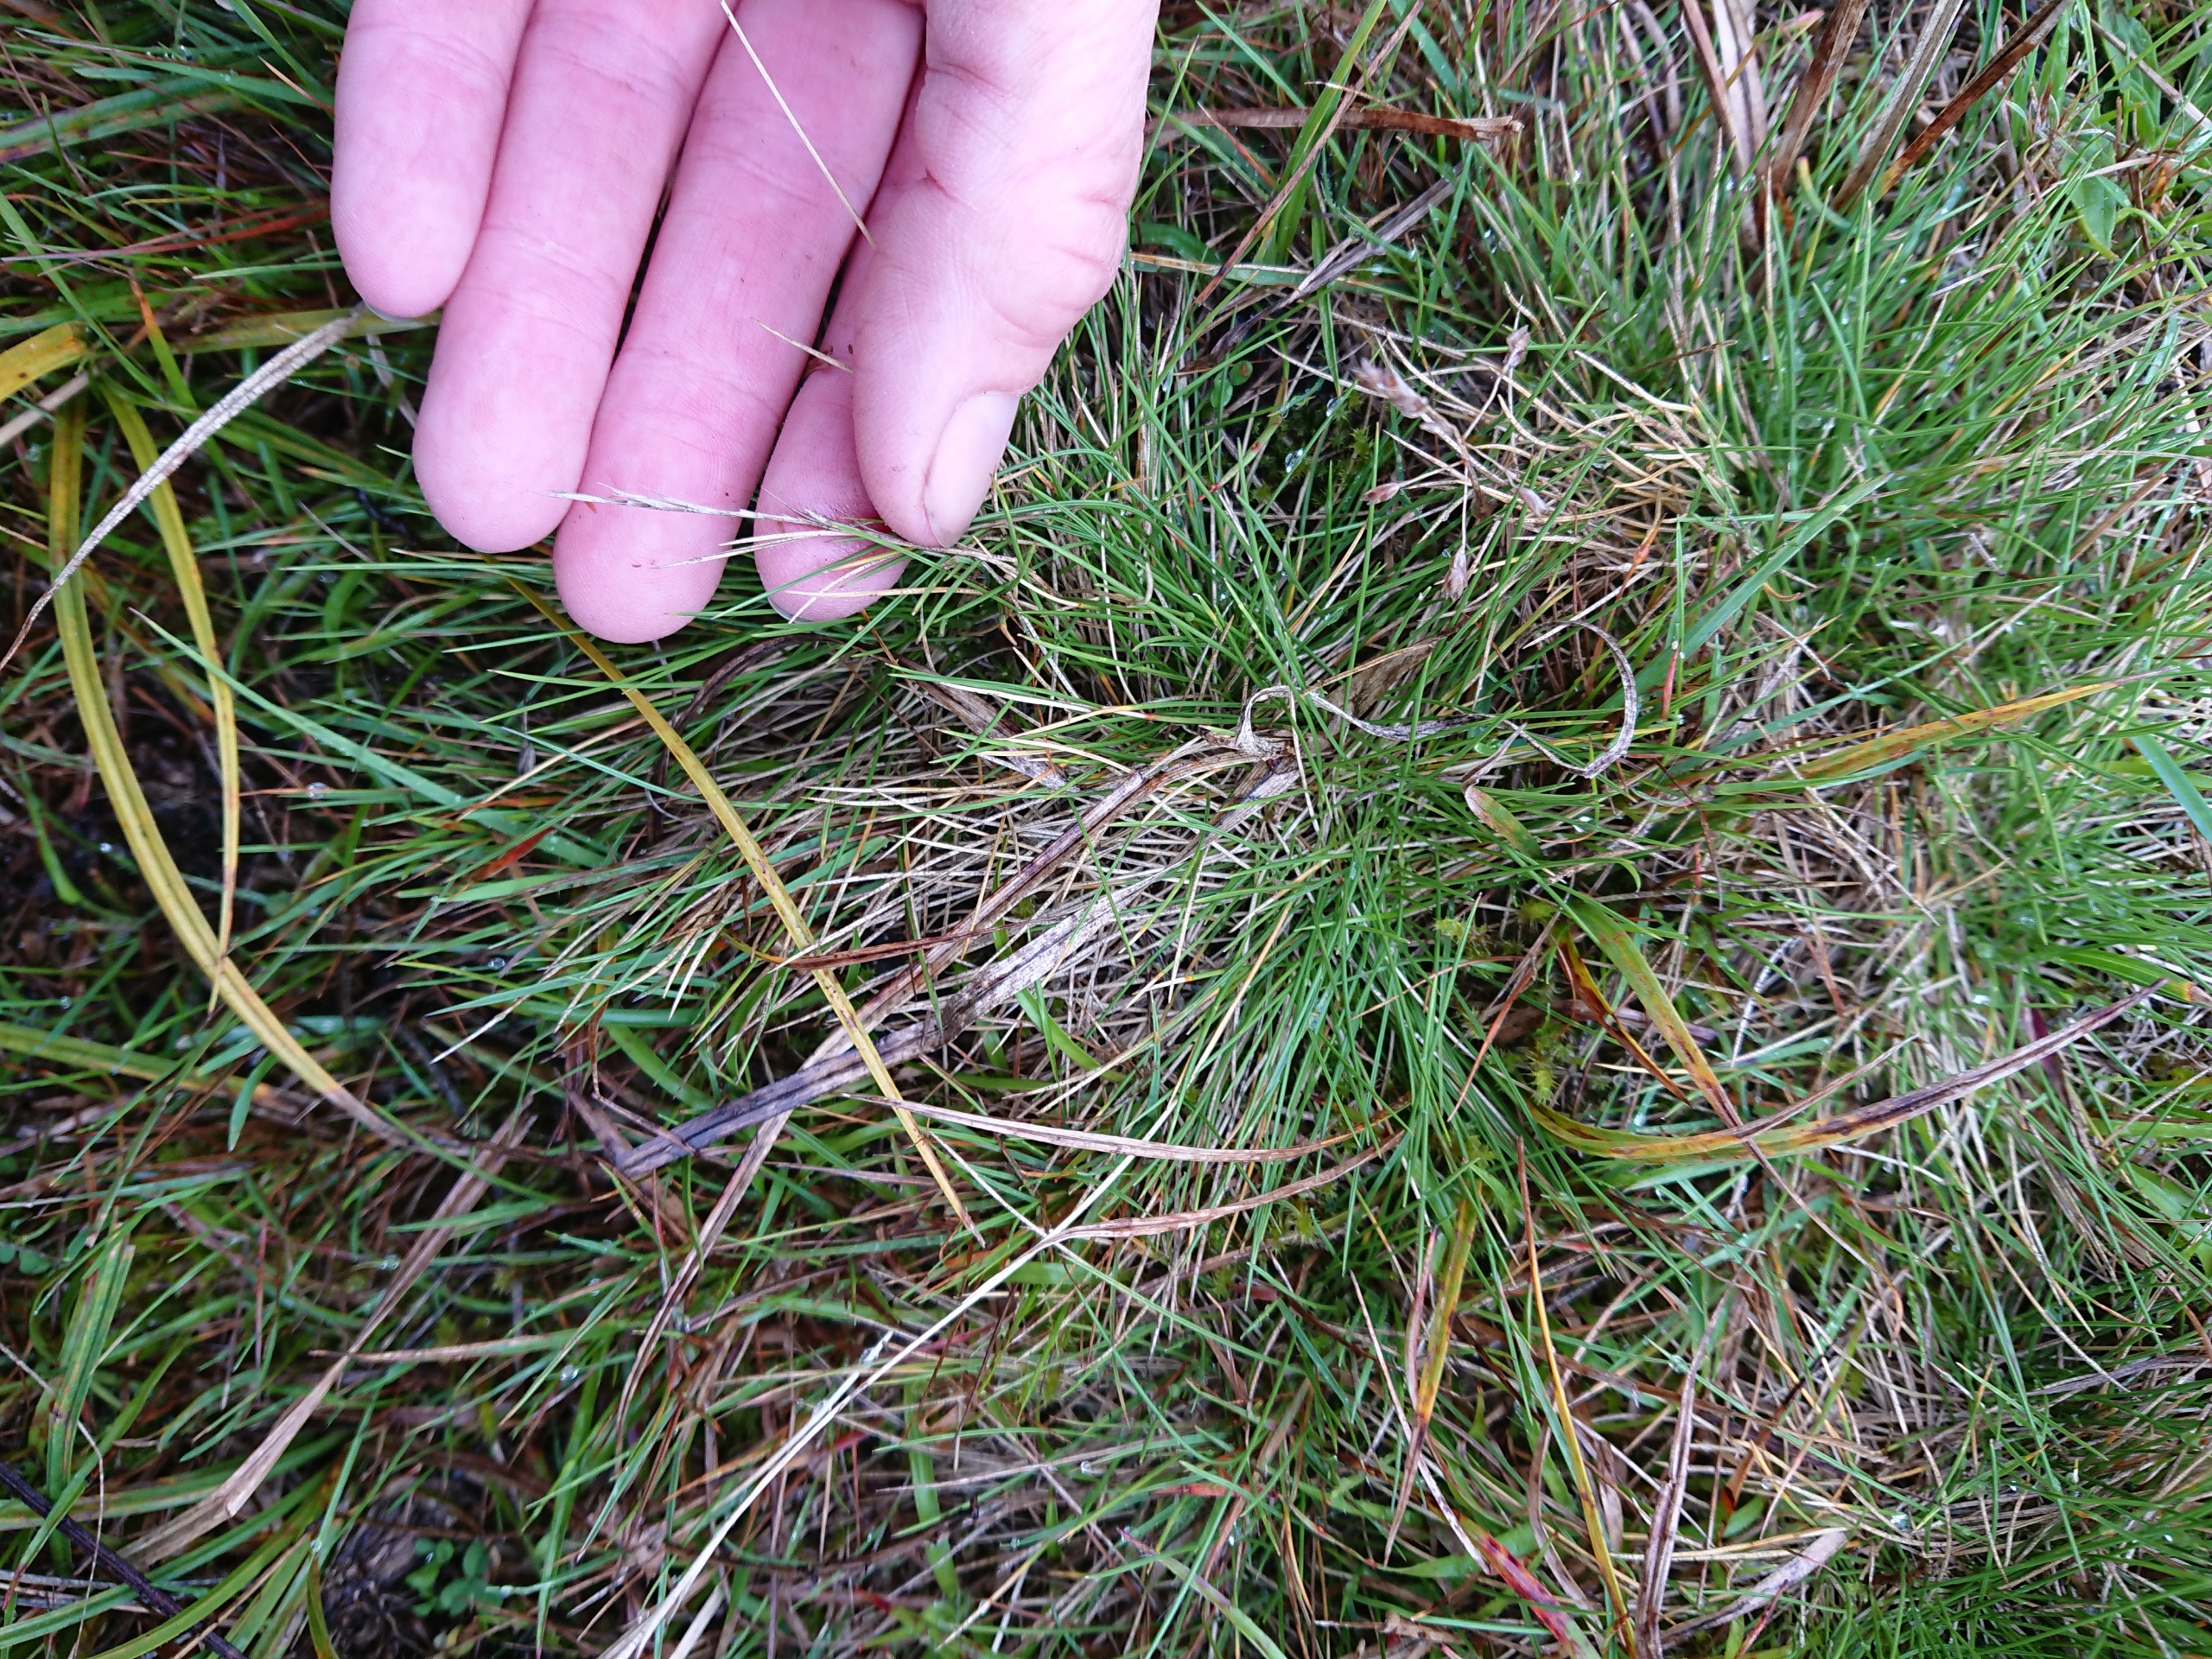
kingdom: Plantae
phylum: Tracheophyta
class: Liliopsida
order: Poales
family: Poaceae
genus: Nardus
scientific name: Nardus stricta
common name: Katteskæg
